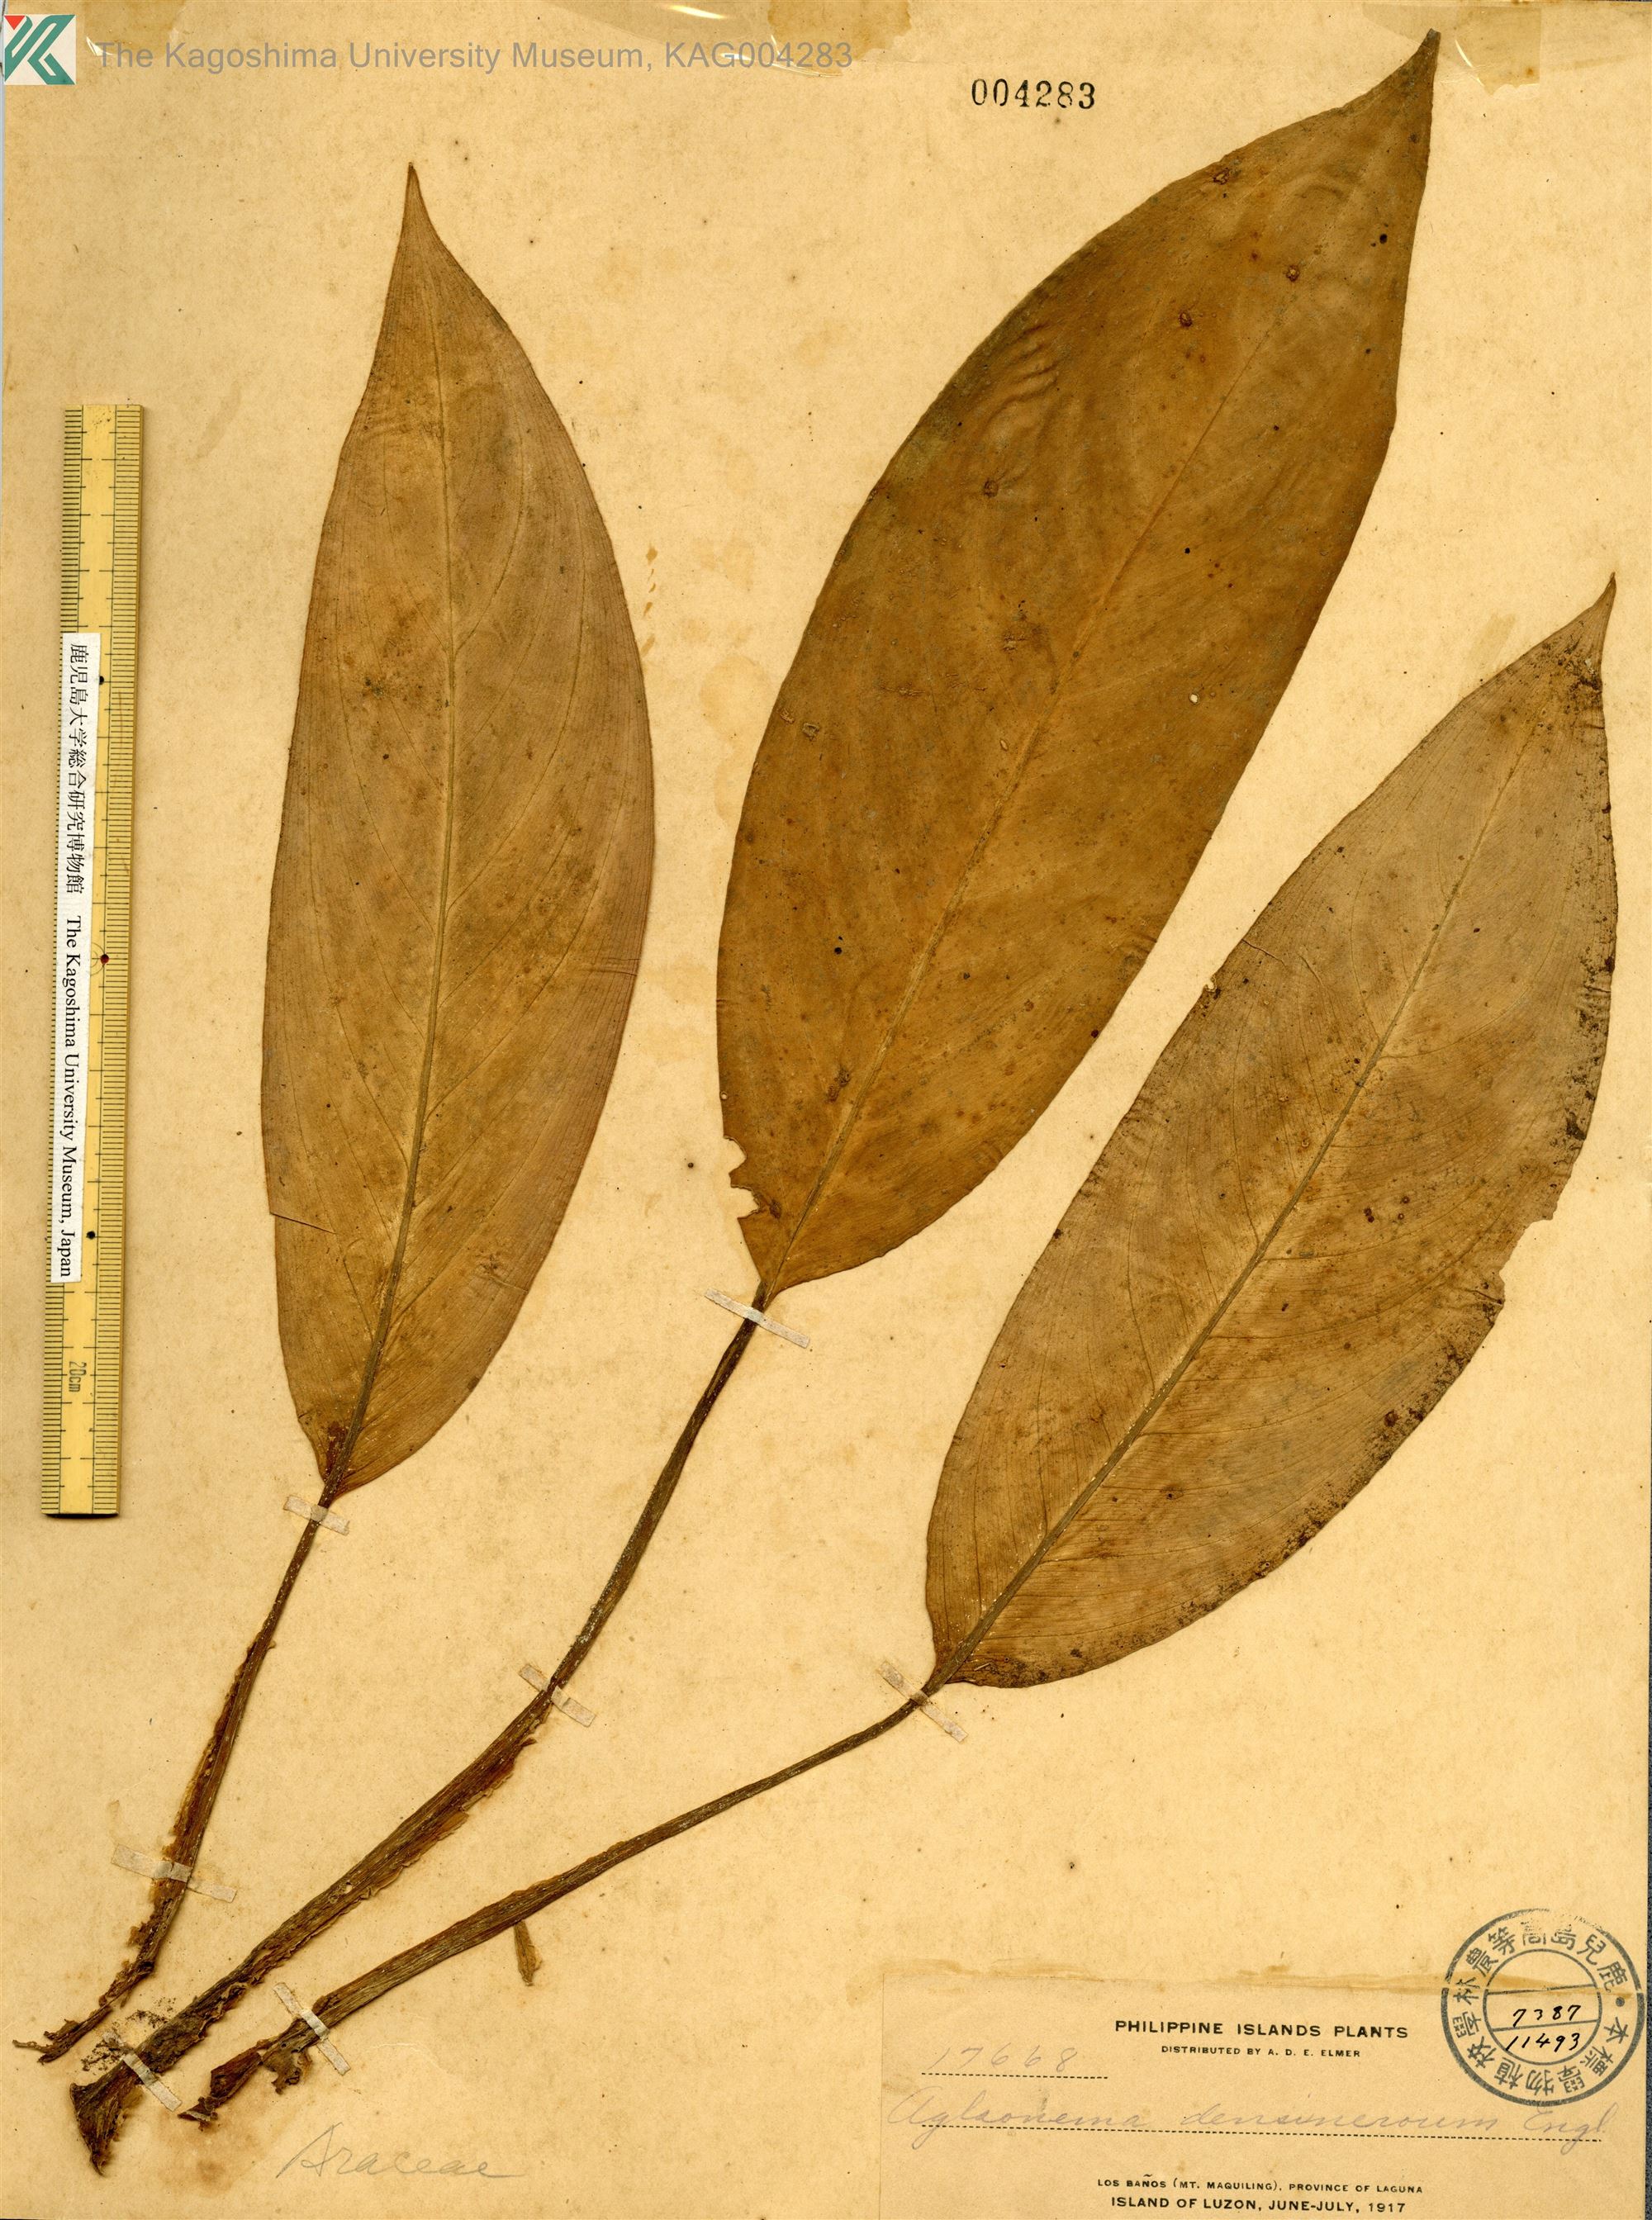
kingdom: Plantae
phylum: Tracheophyta
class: Liliopsida
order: Alismatales
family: Araceae
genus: Aglaonema
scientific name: Aglaonema densinervium
